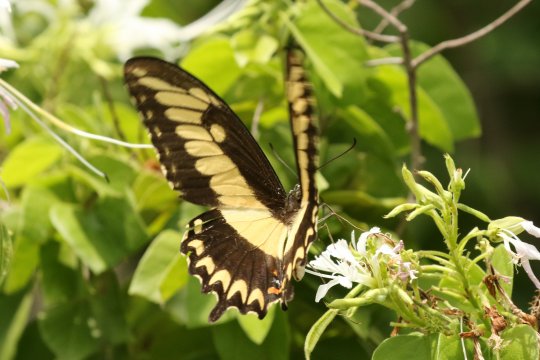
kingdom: Animalia
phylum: Arthropoda
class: Insecta
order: Lepidoptera
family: Papilionidae
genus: Papilio
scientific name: Papilio astyalus
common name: Broad-banded Swallowtail
